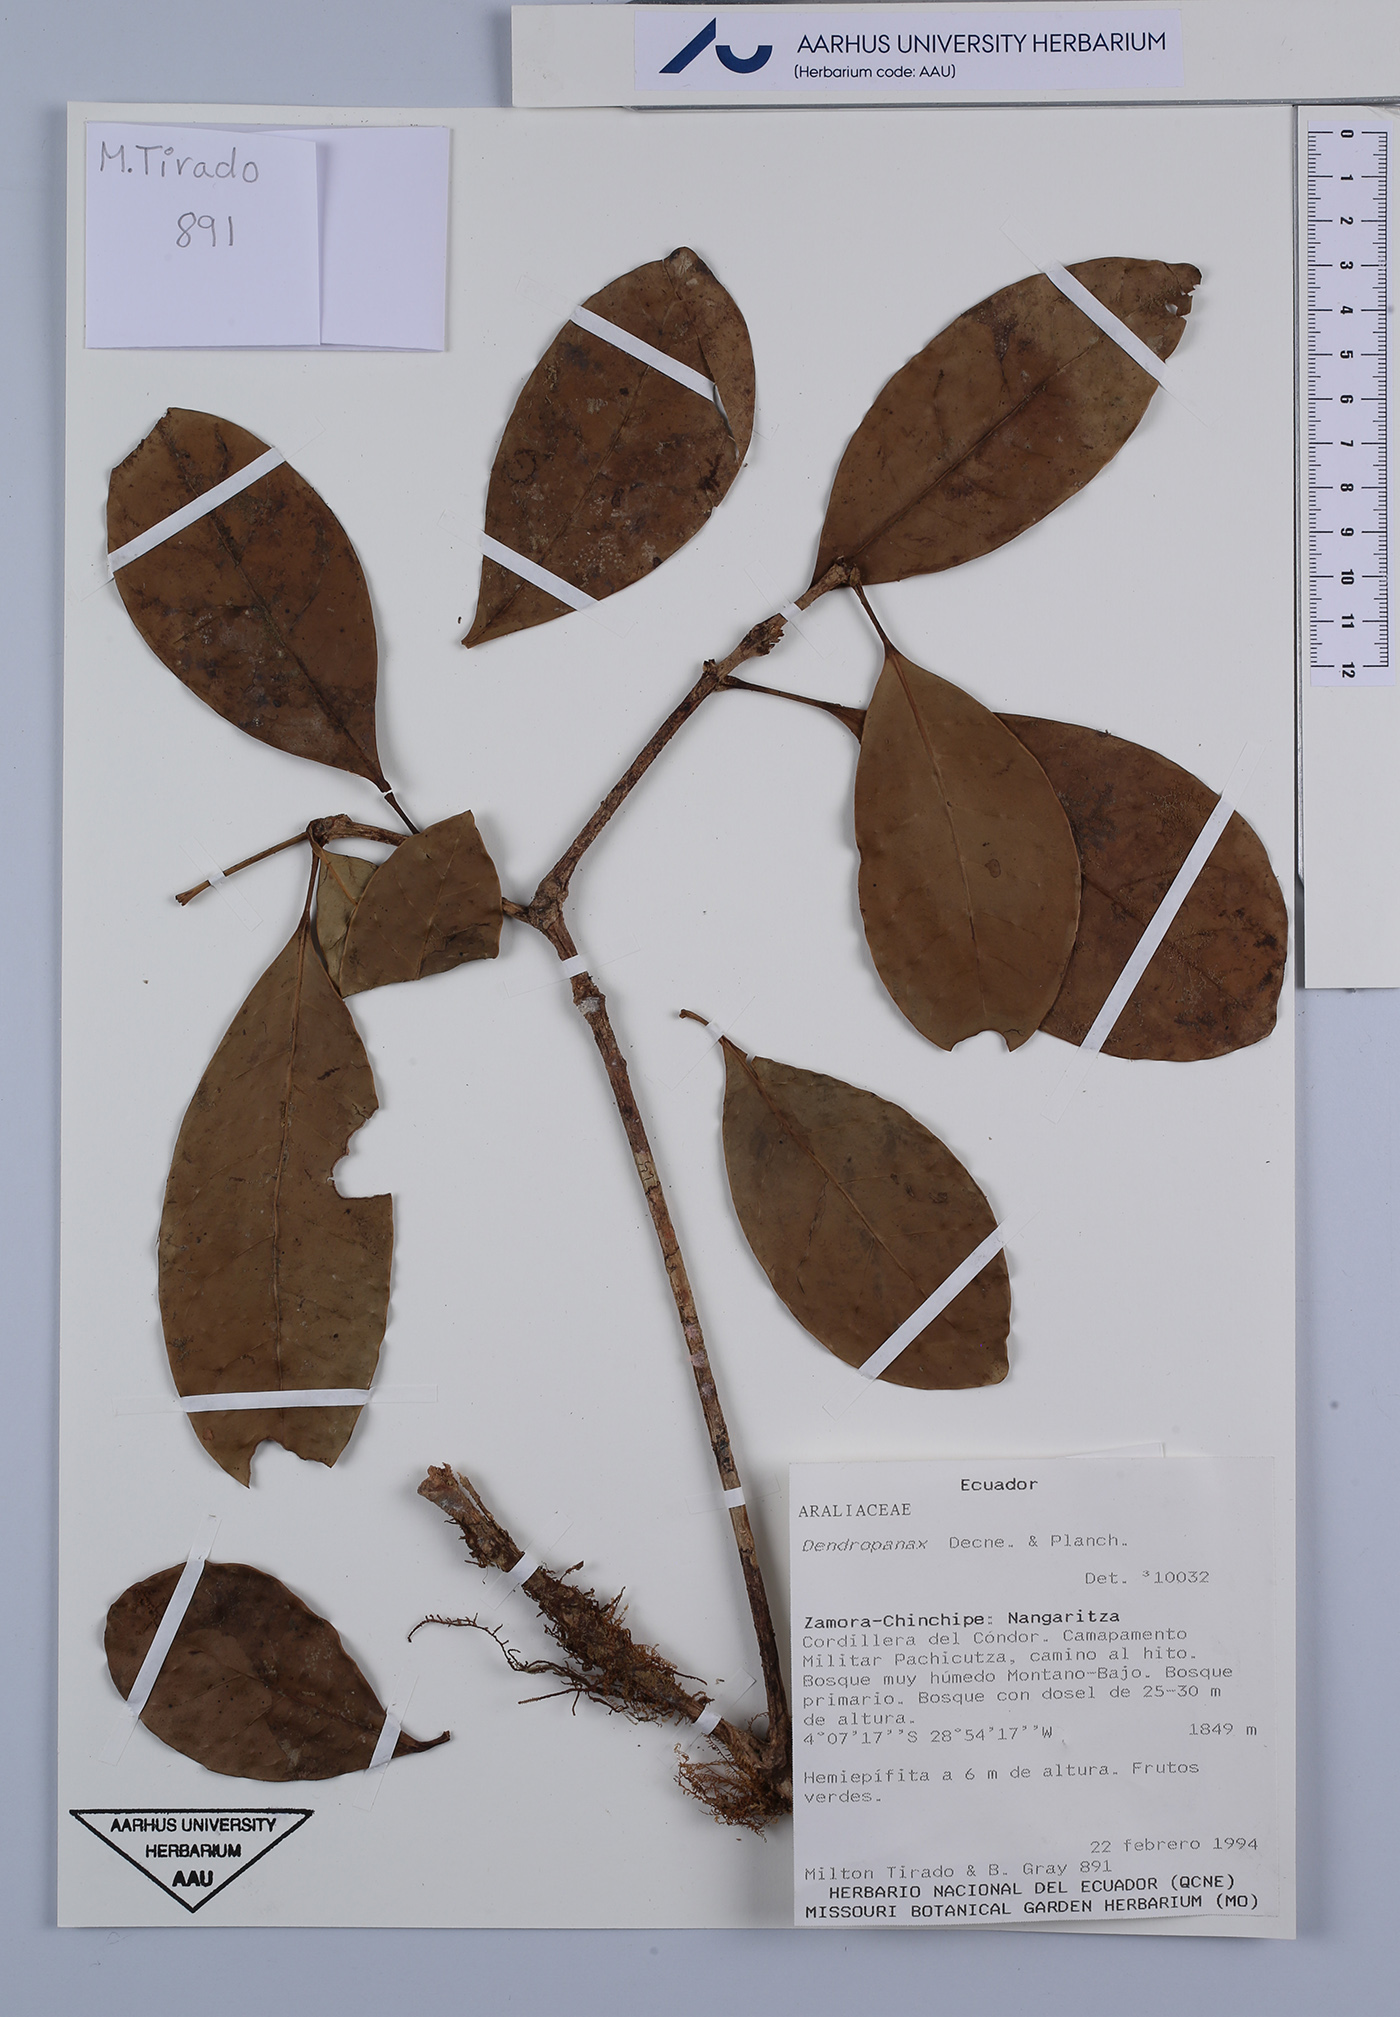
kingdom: Plantae
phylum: Tracheophyta
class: Magnoliopsida
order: Apiales
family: Araliaceae
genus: Dendropanax
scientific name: Dendropanax
